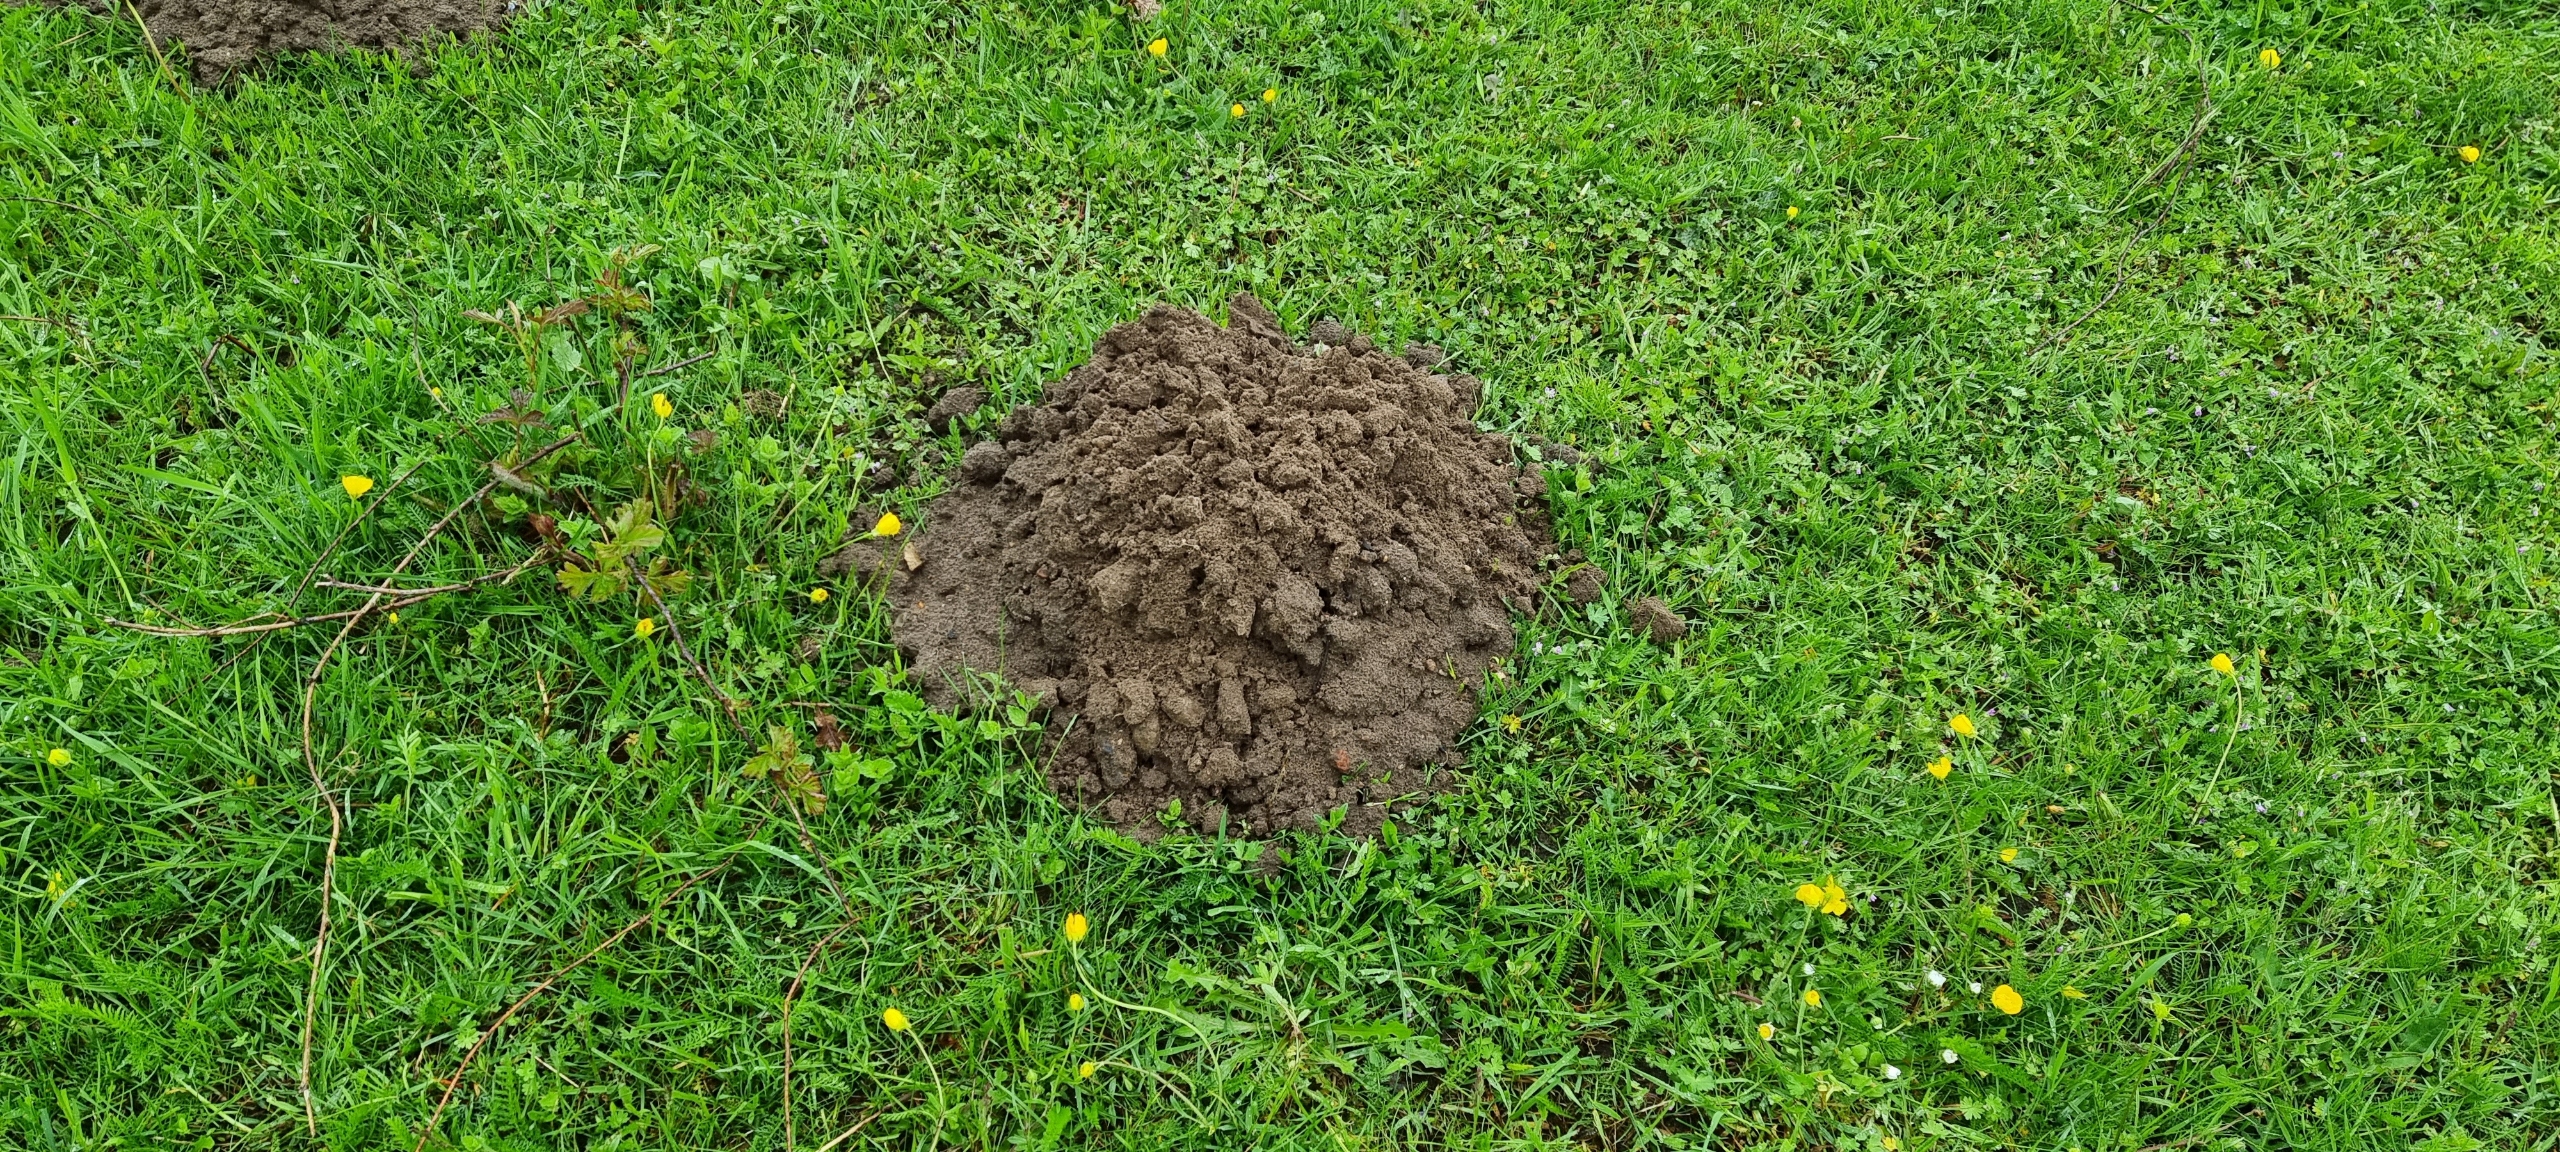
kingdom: Animalia
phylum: Chordata
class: Mammalia
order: Soricomorpha
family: Talpidae
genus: Talpa
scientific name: Talpa europaea
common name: Muldvarp
